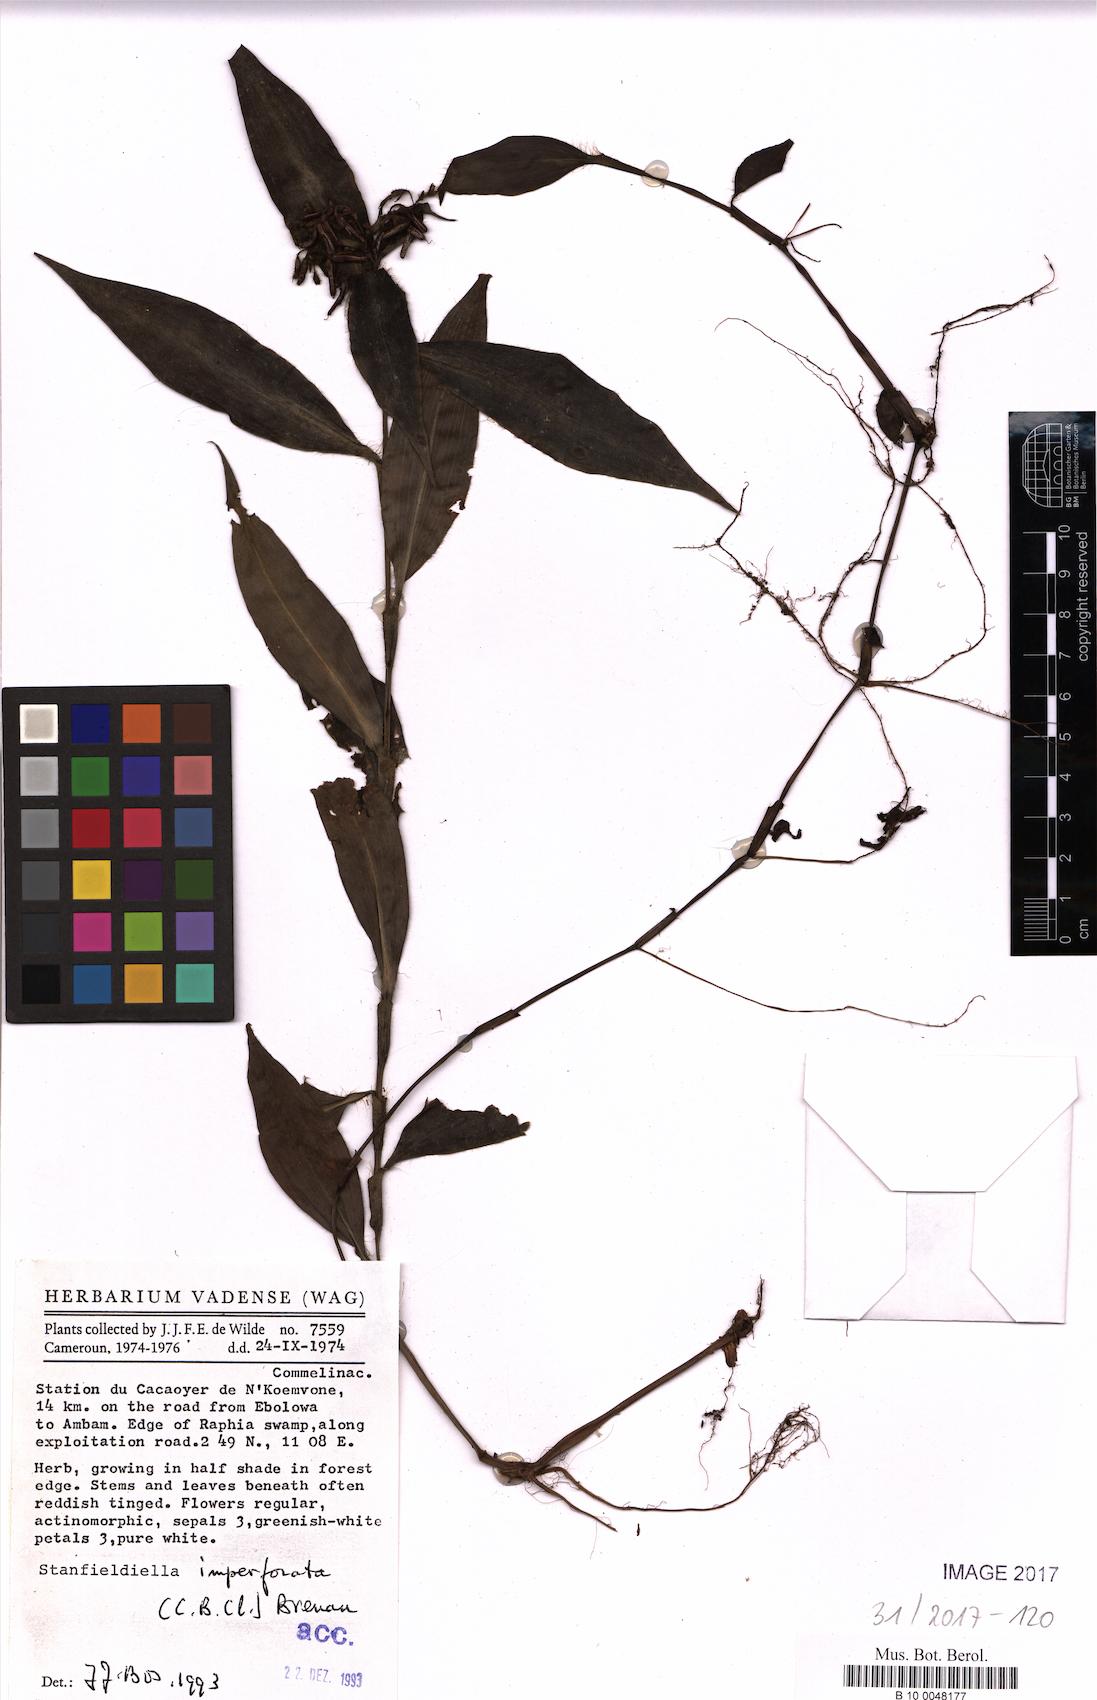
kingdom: Plantae
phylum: Tracheophyta
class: Liliopsida
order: Commelinales
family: Commelinaceae
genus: Stanfieldiella
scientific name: Stanfieldiella imperforata
